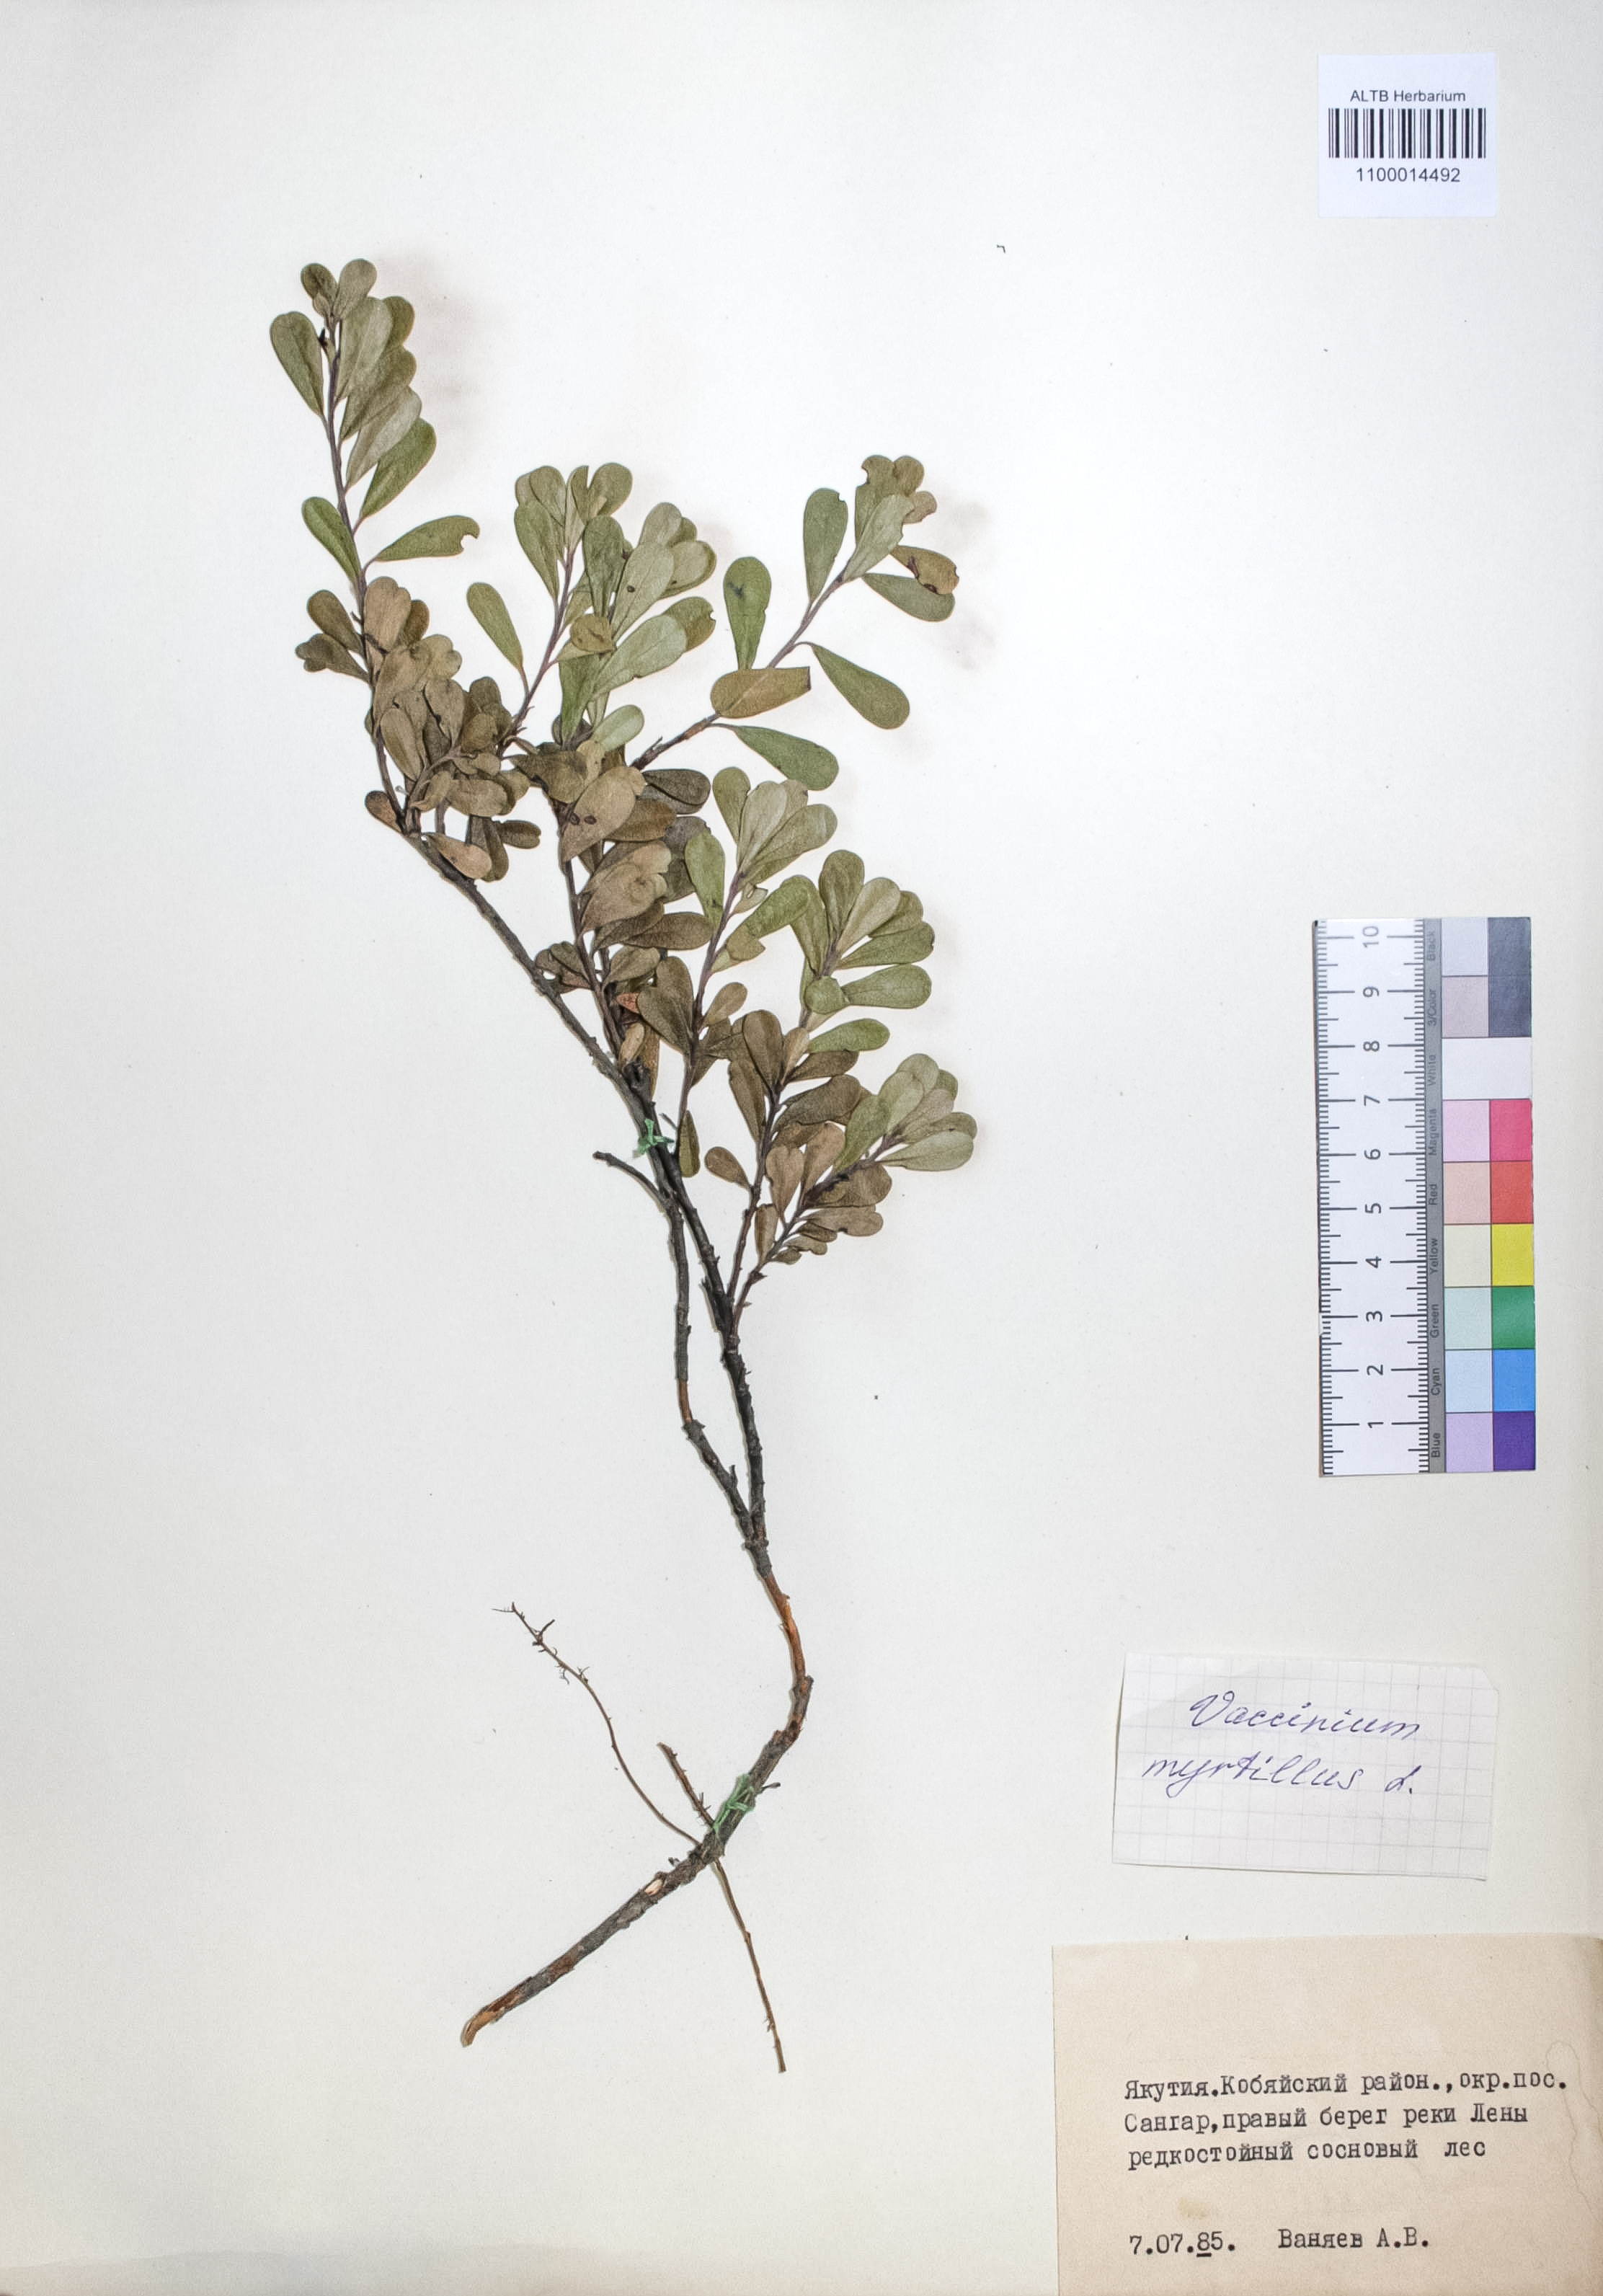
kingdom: Plantae
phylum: Tracheophyta
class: Magnoliopsida
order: Ericales
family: Ericaceae
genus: Vaccinium
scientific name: Vaccinium myrtillus
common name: Bilberry
